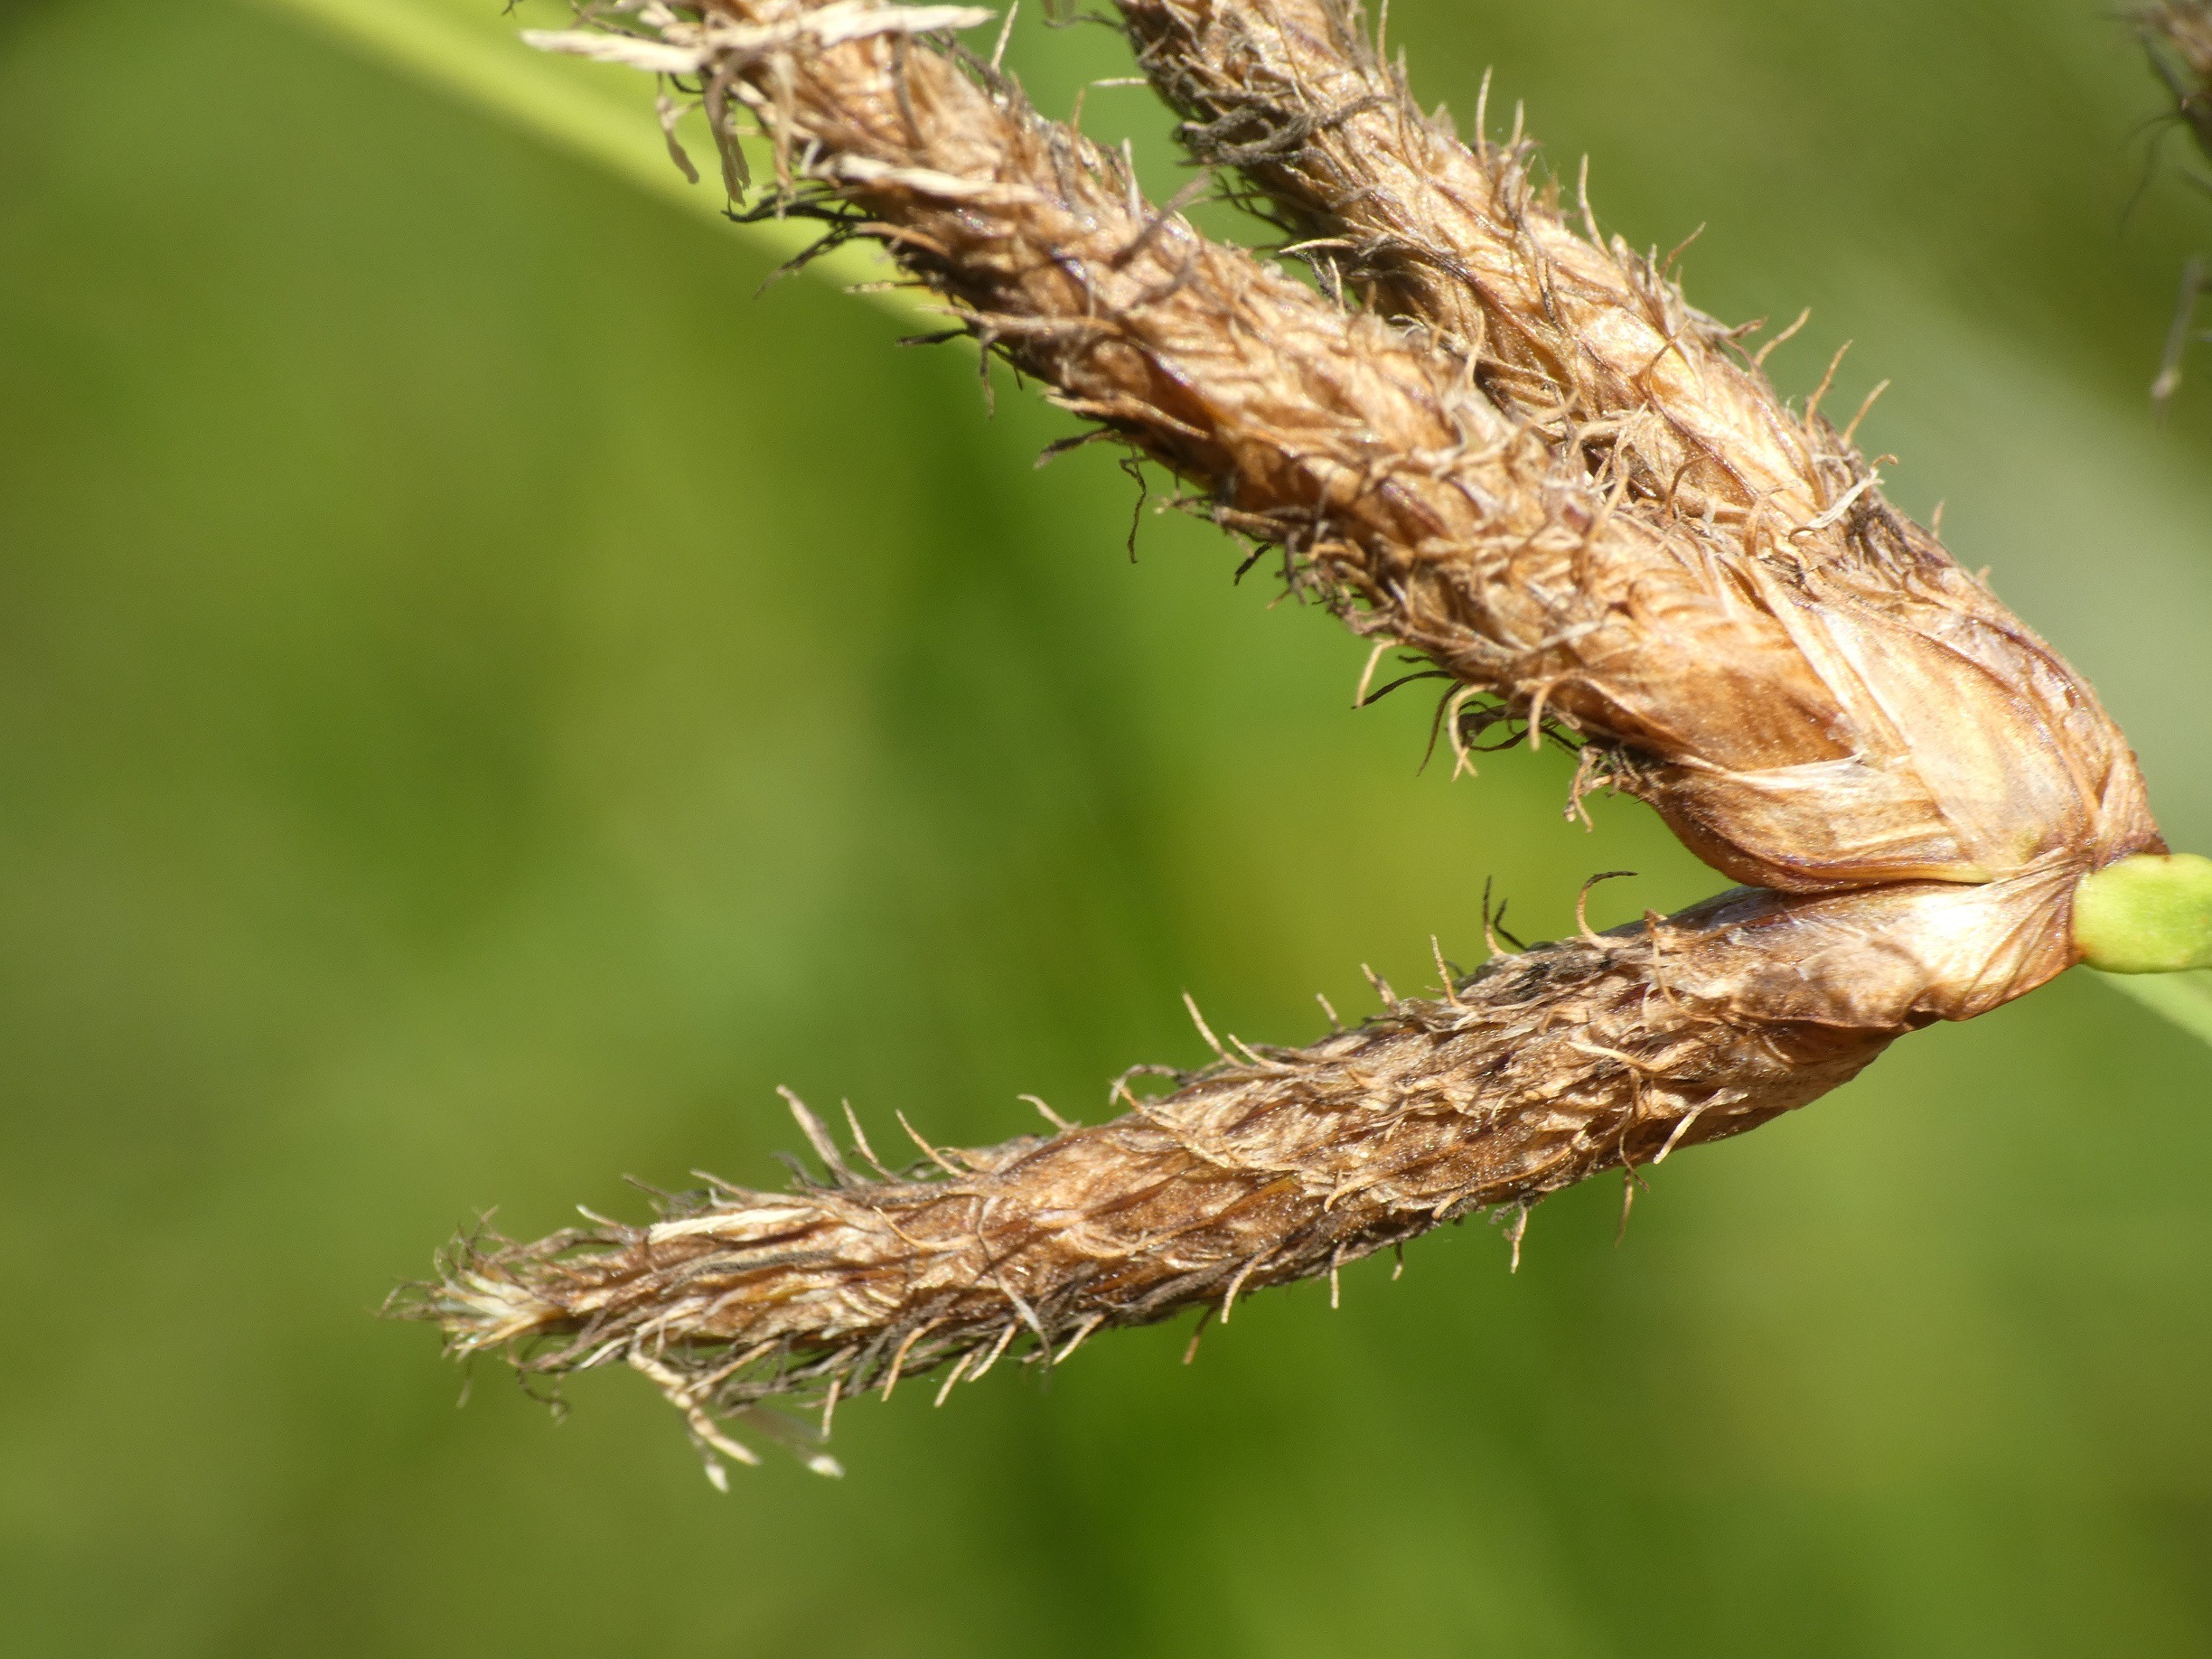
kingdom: Plantae
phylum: Tracheophyta
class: Liliopsida
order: Poales
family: Cyperaceae
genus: Bolboschoenus
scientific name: Bolboschoenus maritimus
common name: Strand-kogleaks
